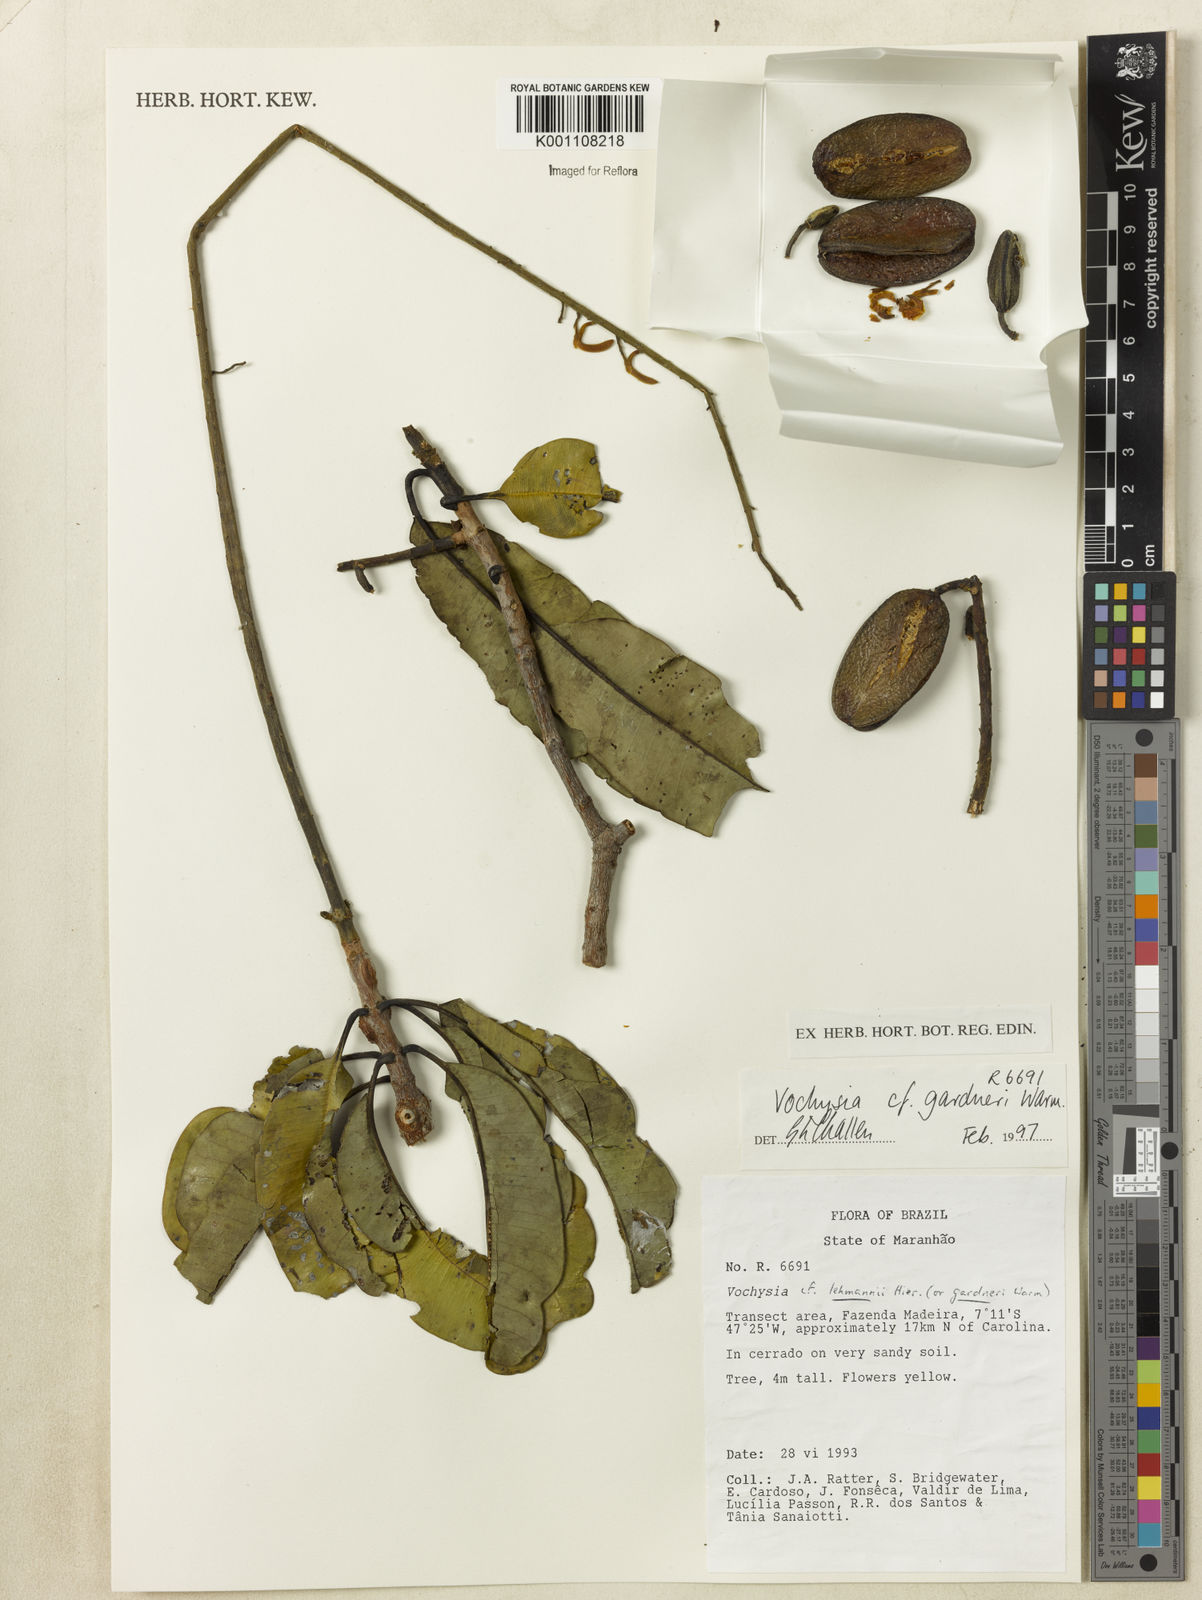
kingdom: Plantae
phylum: Tracheophyta
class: Magnoliopsida
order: Myrtales
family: Vochysiaceae
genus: Vochysia
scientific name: Vochysia gardneri
